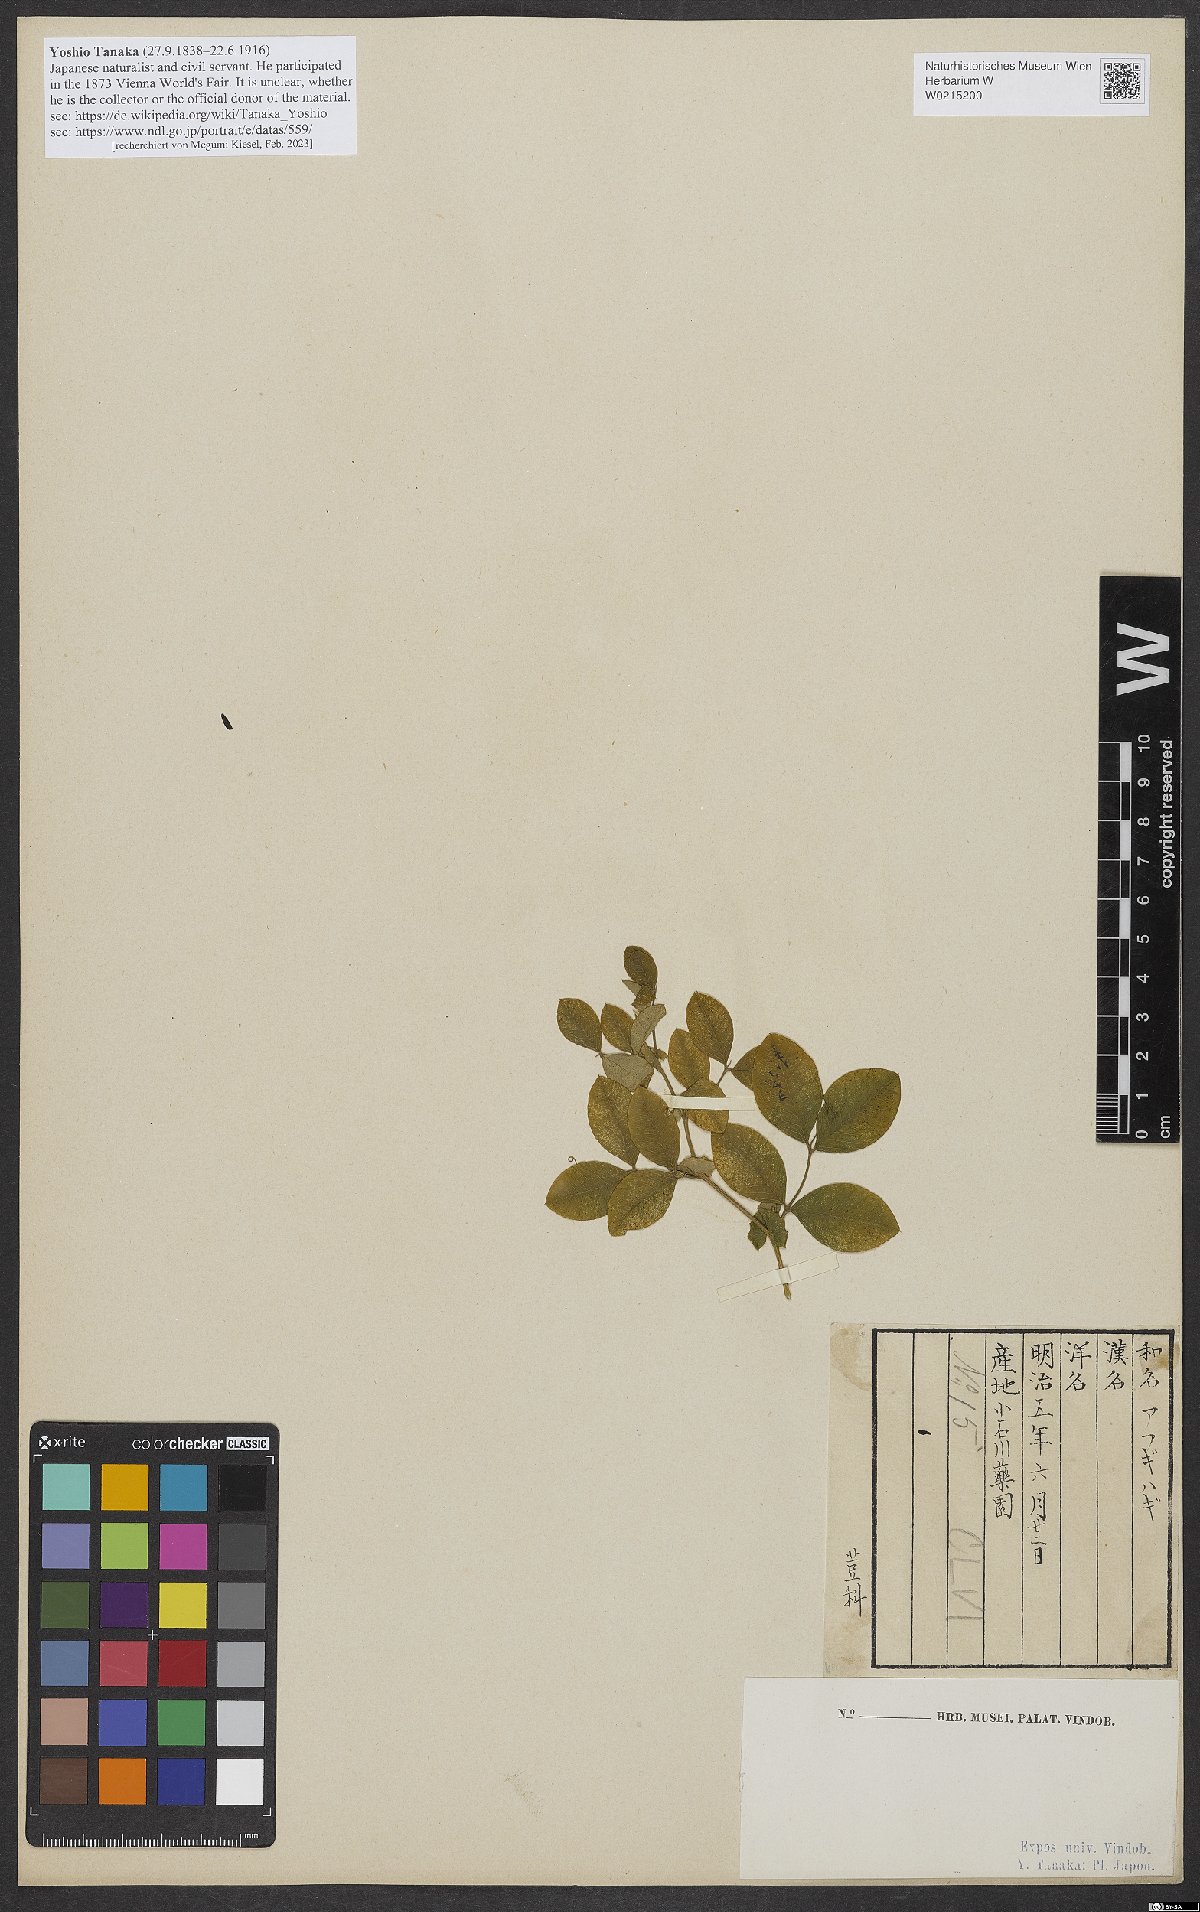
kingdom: Plantae
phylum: Tracheophyta
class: Magnoliopsida
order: Fabales
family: Fabaceae
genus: Vicia
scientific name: Vicia nipponica
